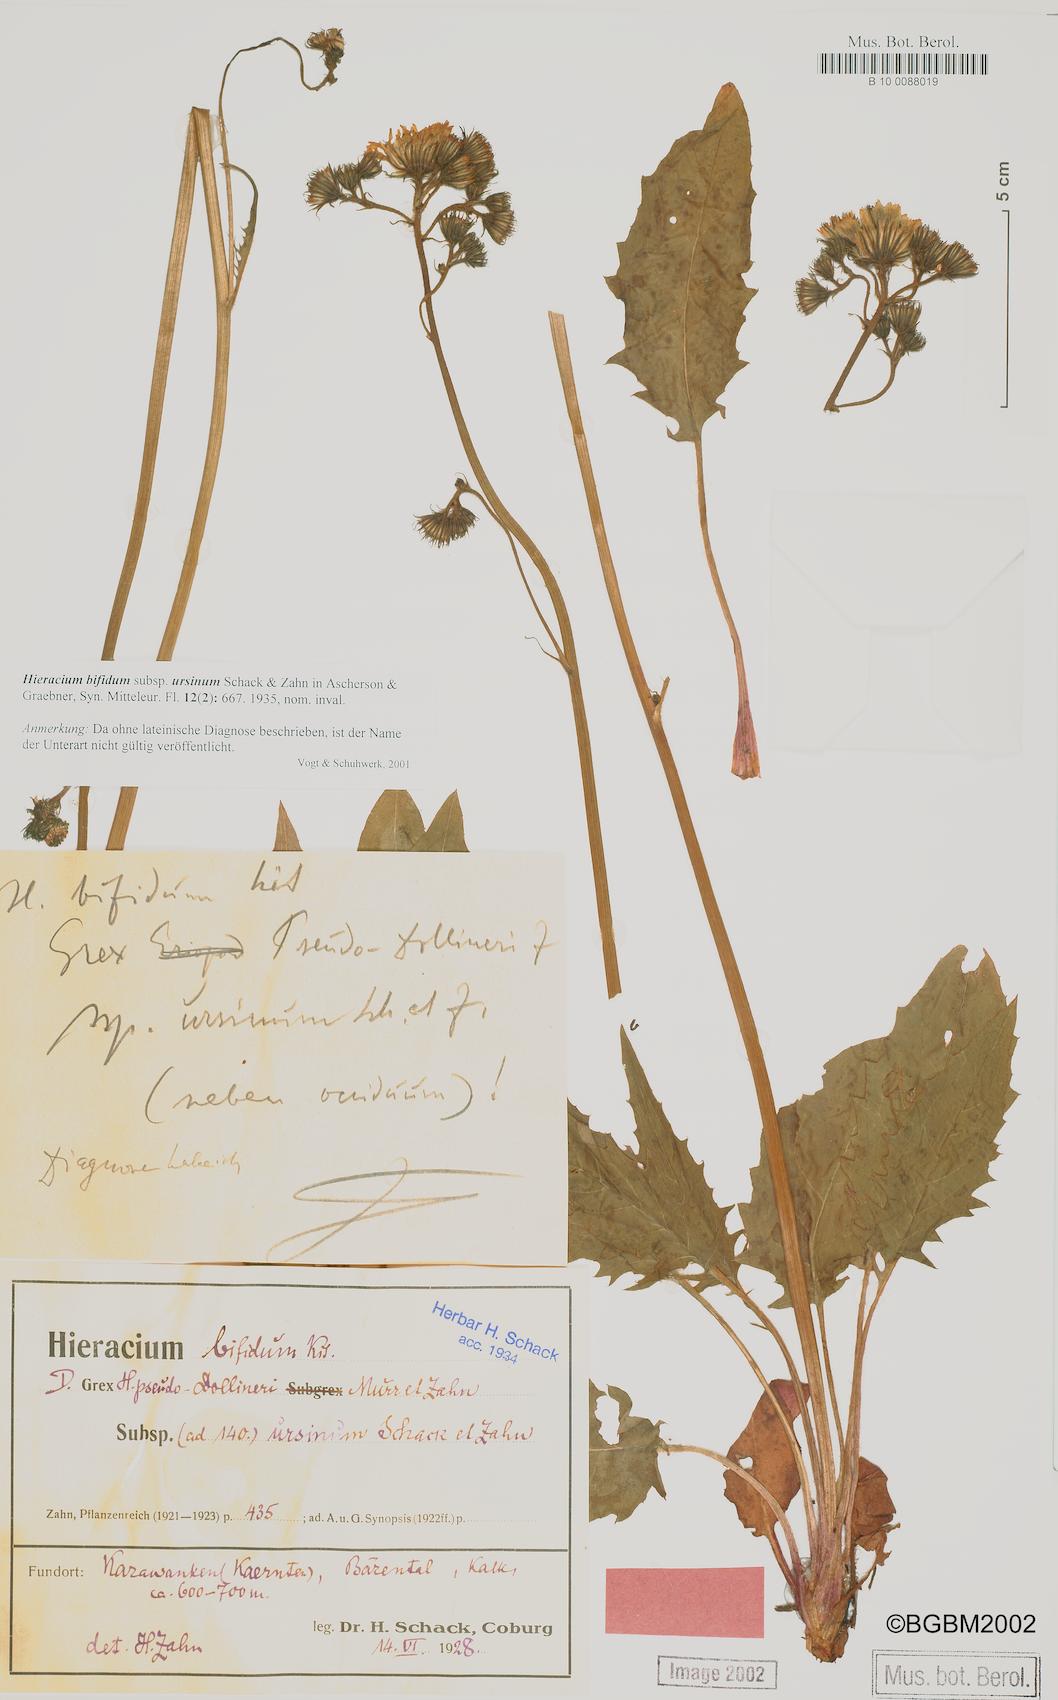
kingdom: Plantae
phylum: Tracheophyta
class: Magnoliopsida
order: Asterales
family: Asteraceae
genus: Hieracium
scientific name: Hieracium bifidum
